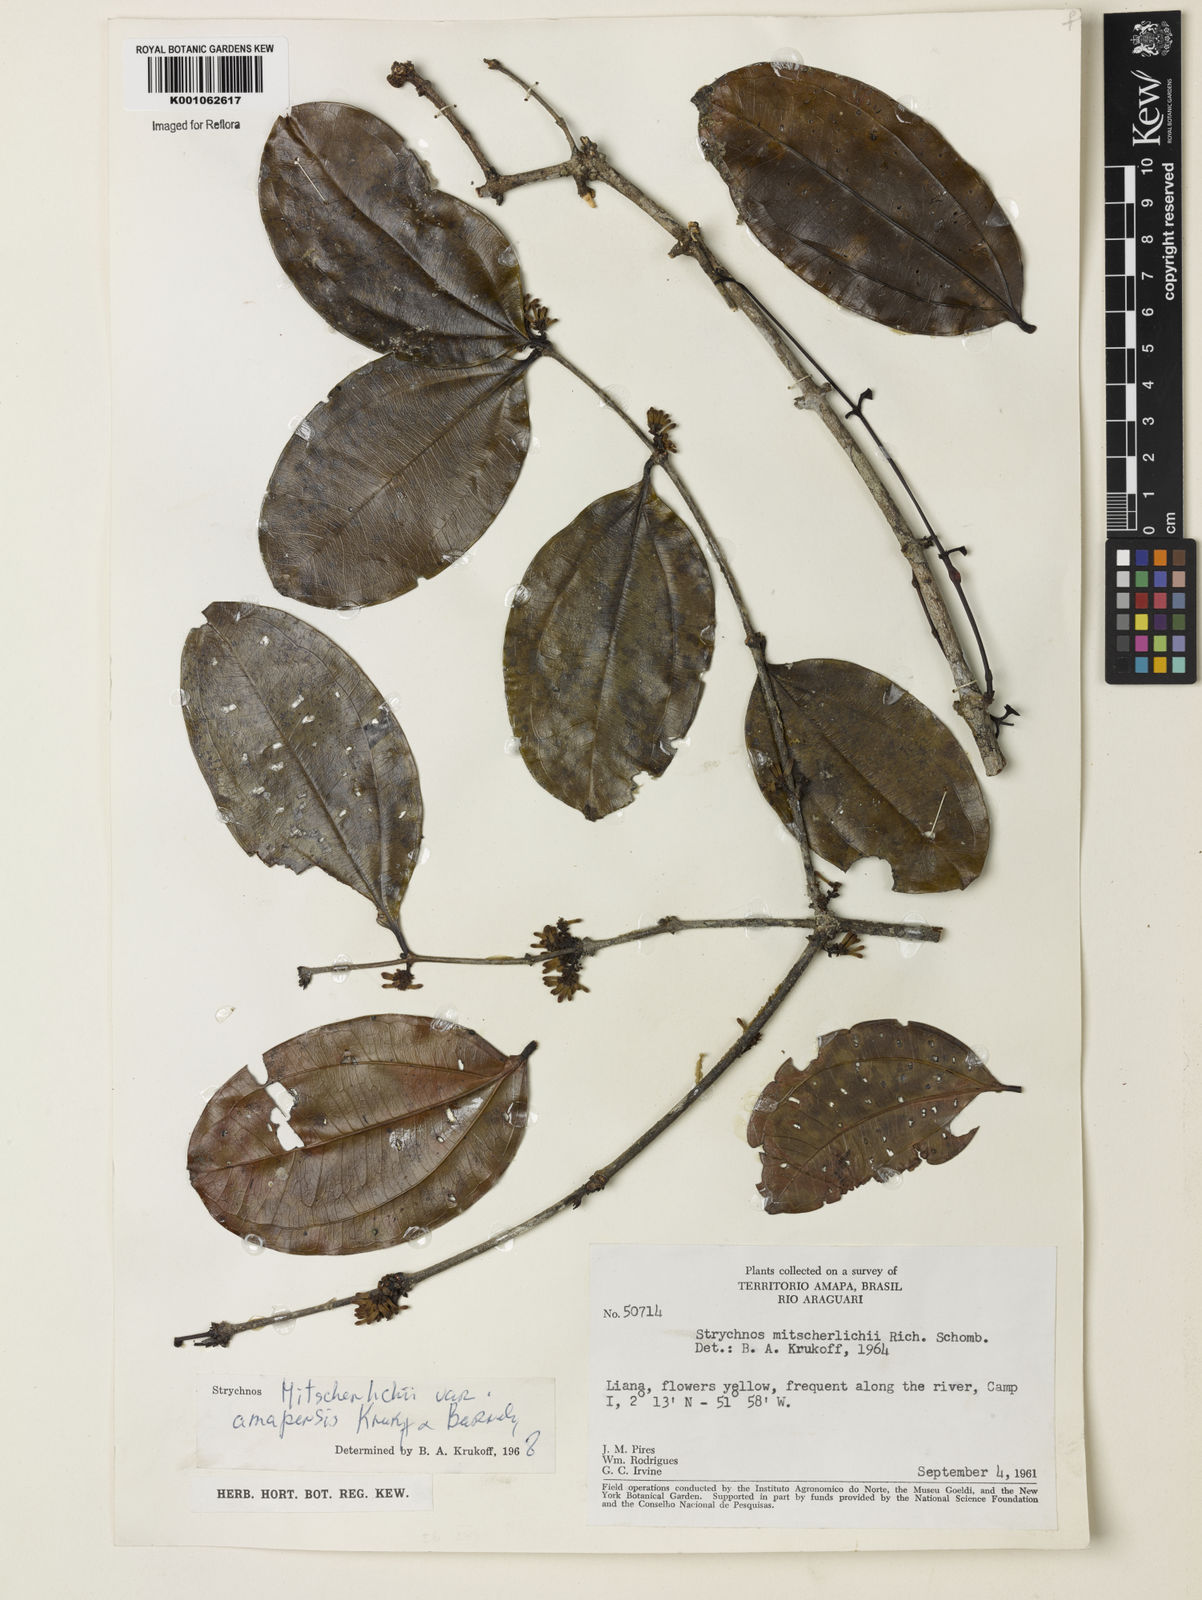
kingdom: Plantae
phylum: Tracheophyta
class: Magnoliopsida
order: Gentianales
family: Loganiaceae
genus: Strychnos
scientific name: Strychnos mitscherlichii
